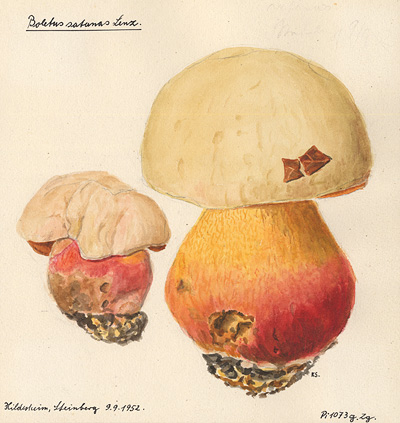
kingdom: Fungi
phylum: Basidiomycota
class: Agaricomycetes
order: Boletales
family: Boletaceae
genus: Rubroboletus
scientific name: Rubroboletus satanas
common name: Devil's bolete
